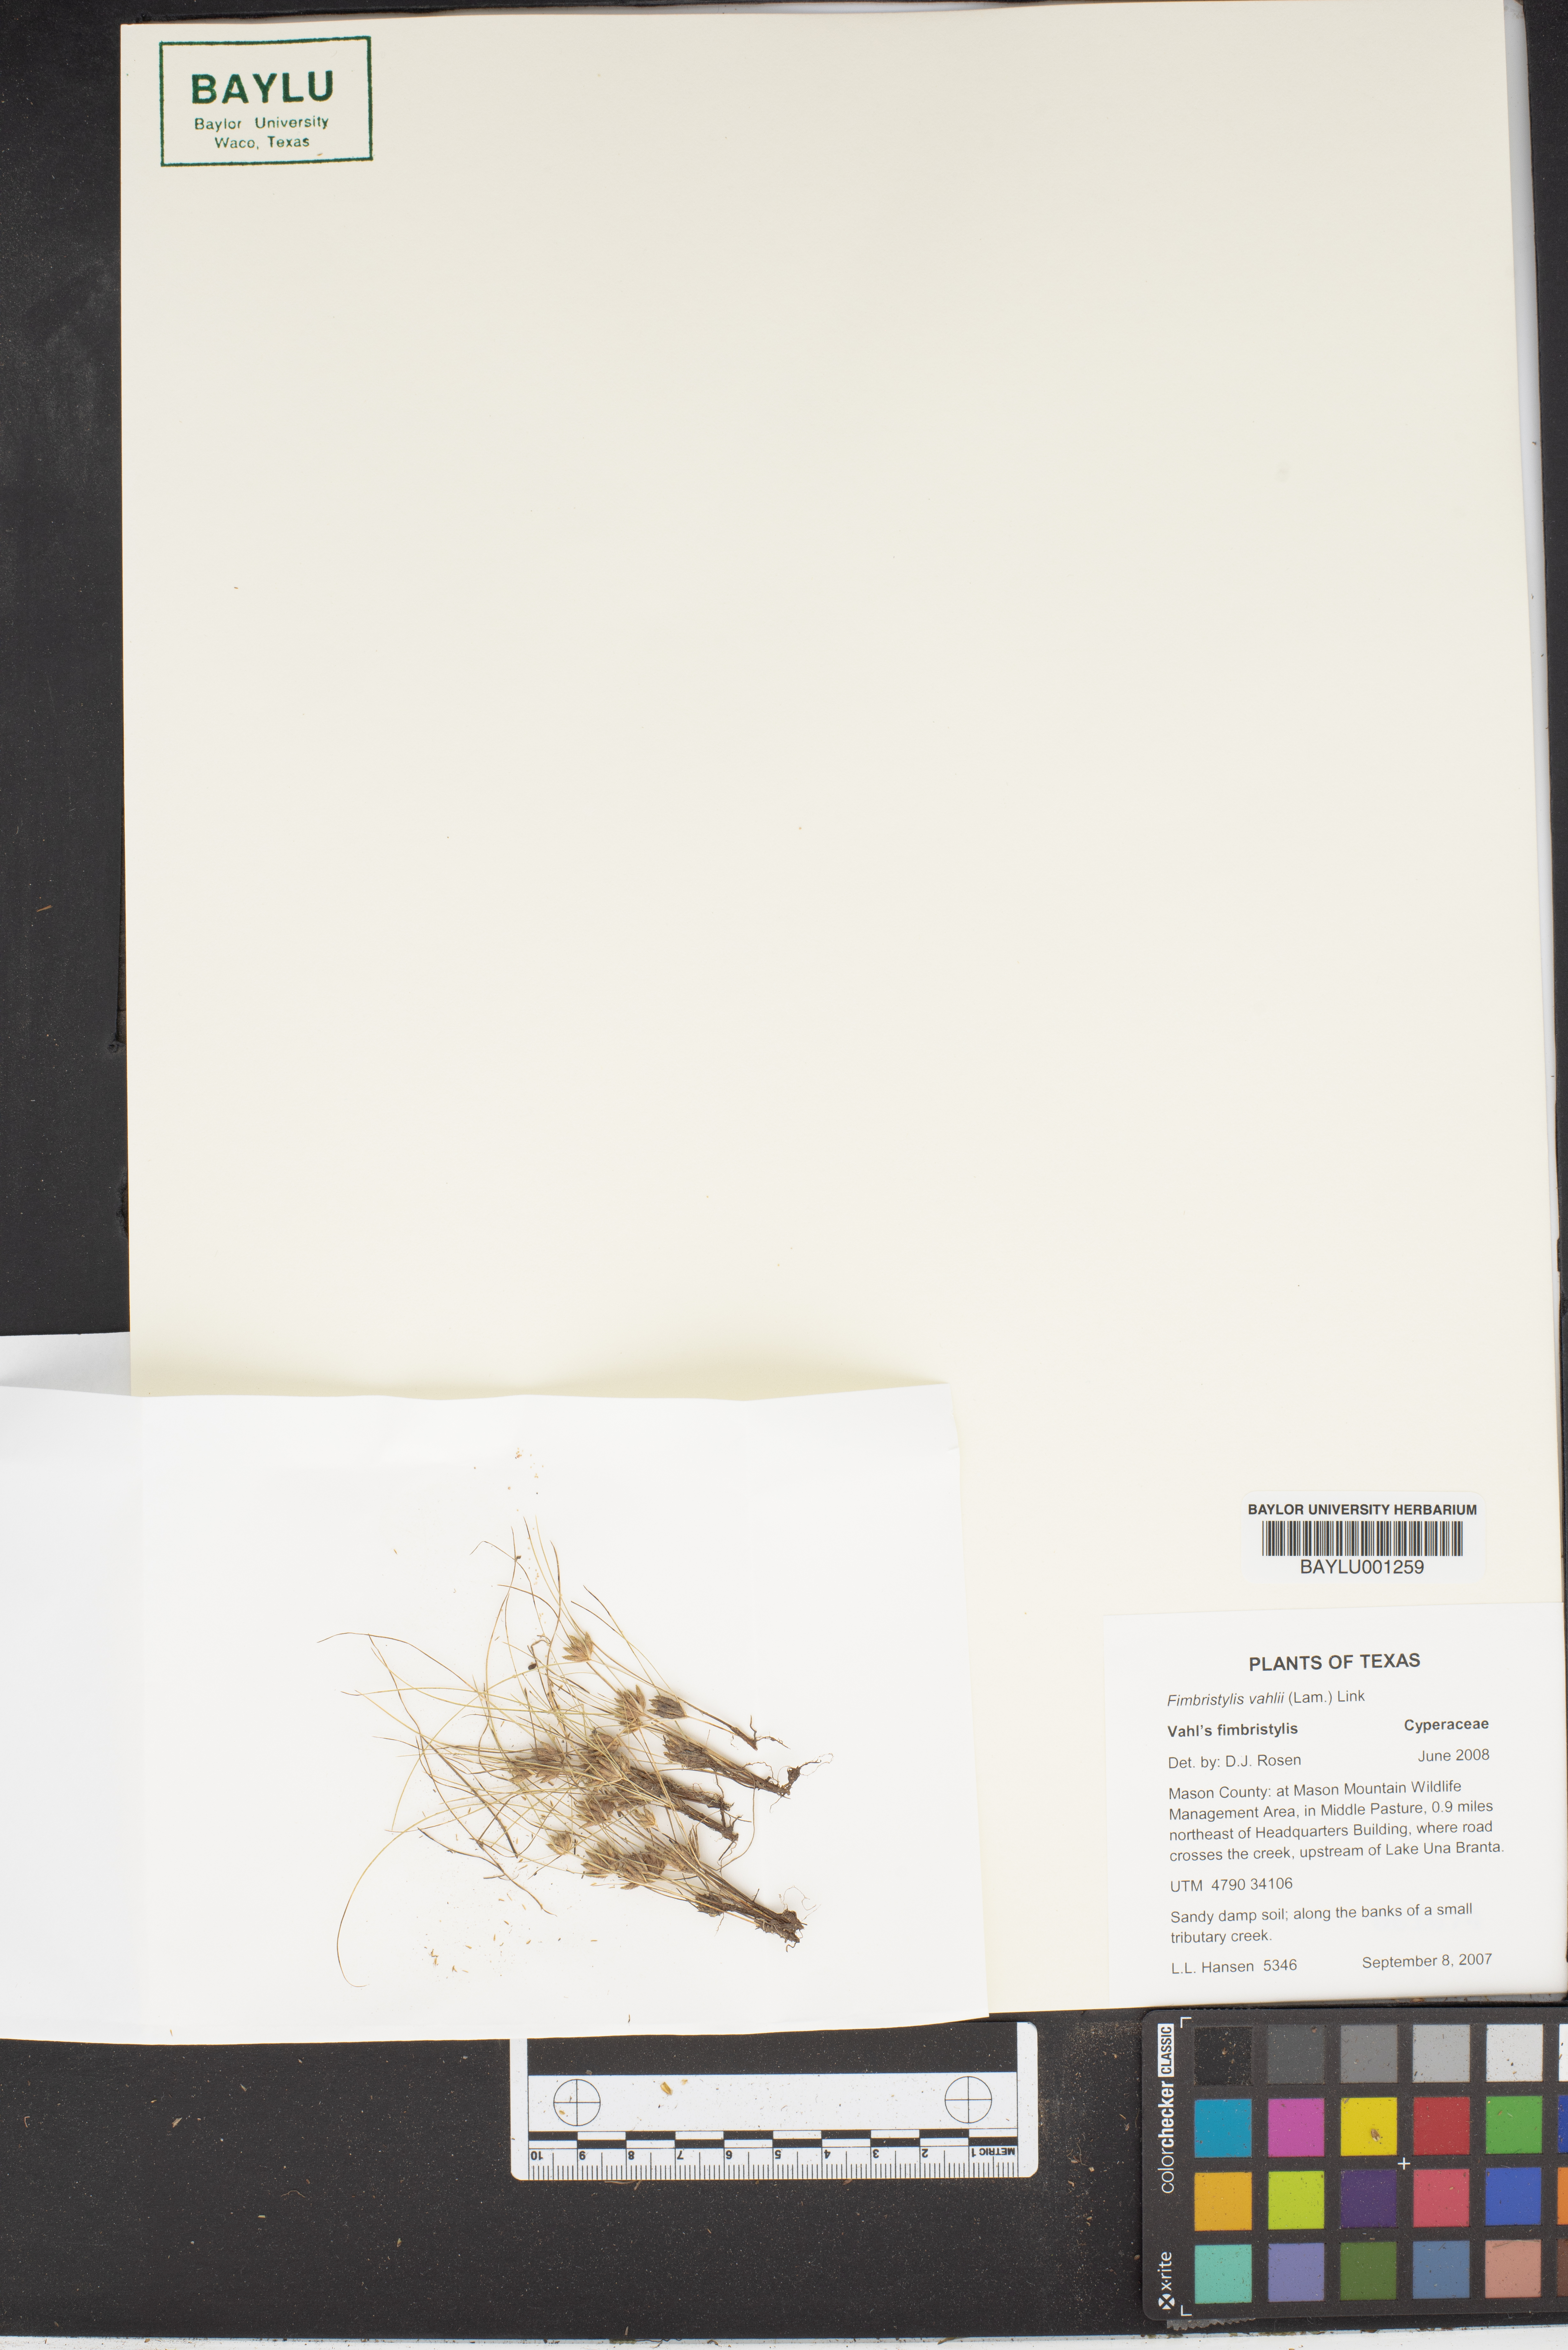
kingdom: Plantae
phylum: Tracheophyta
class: Liliopsida
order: Poales
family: Cyperaceae
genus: Fimbristylis
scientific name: Fimbristylis vahlii
